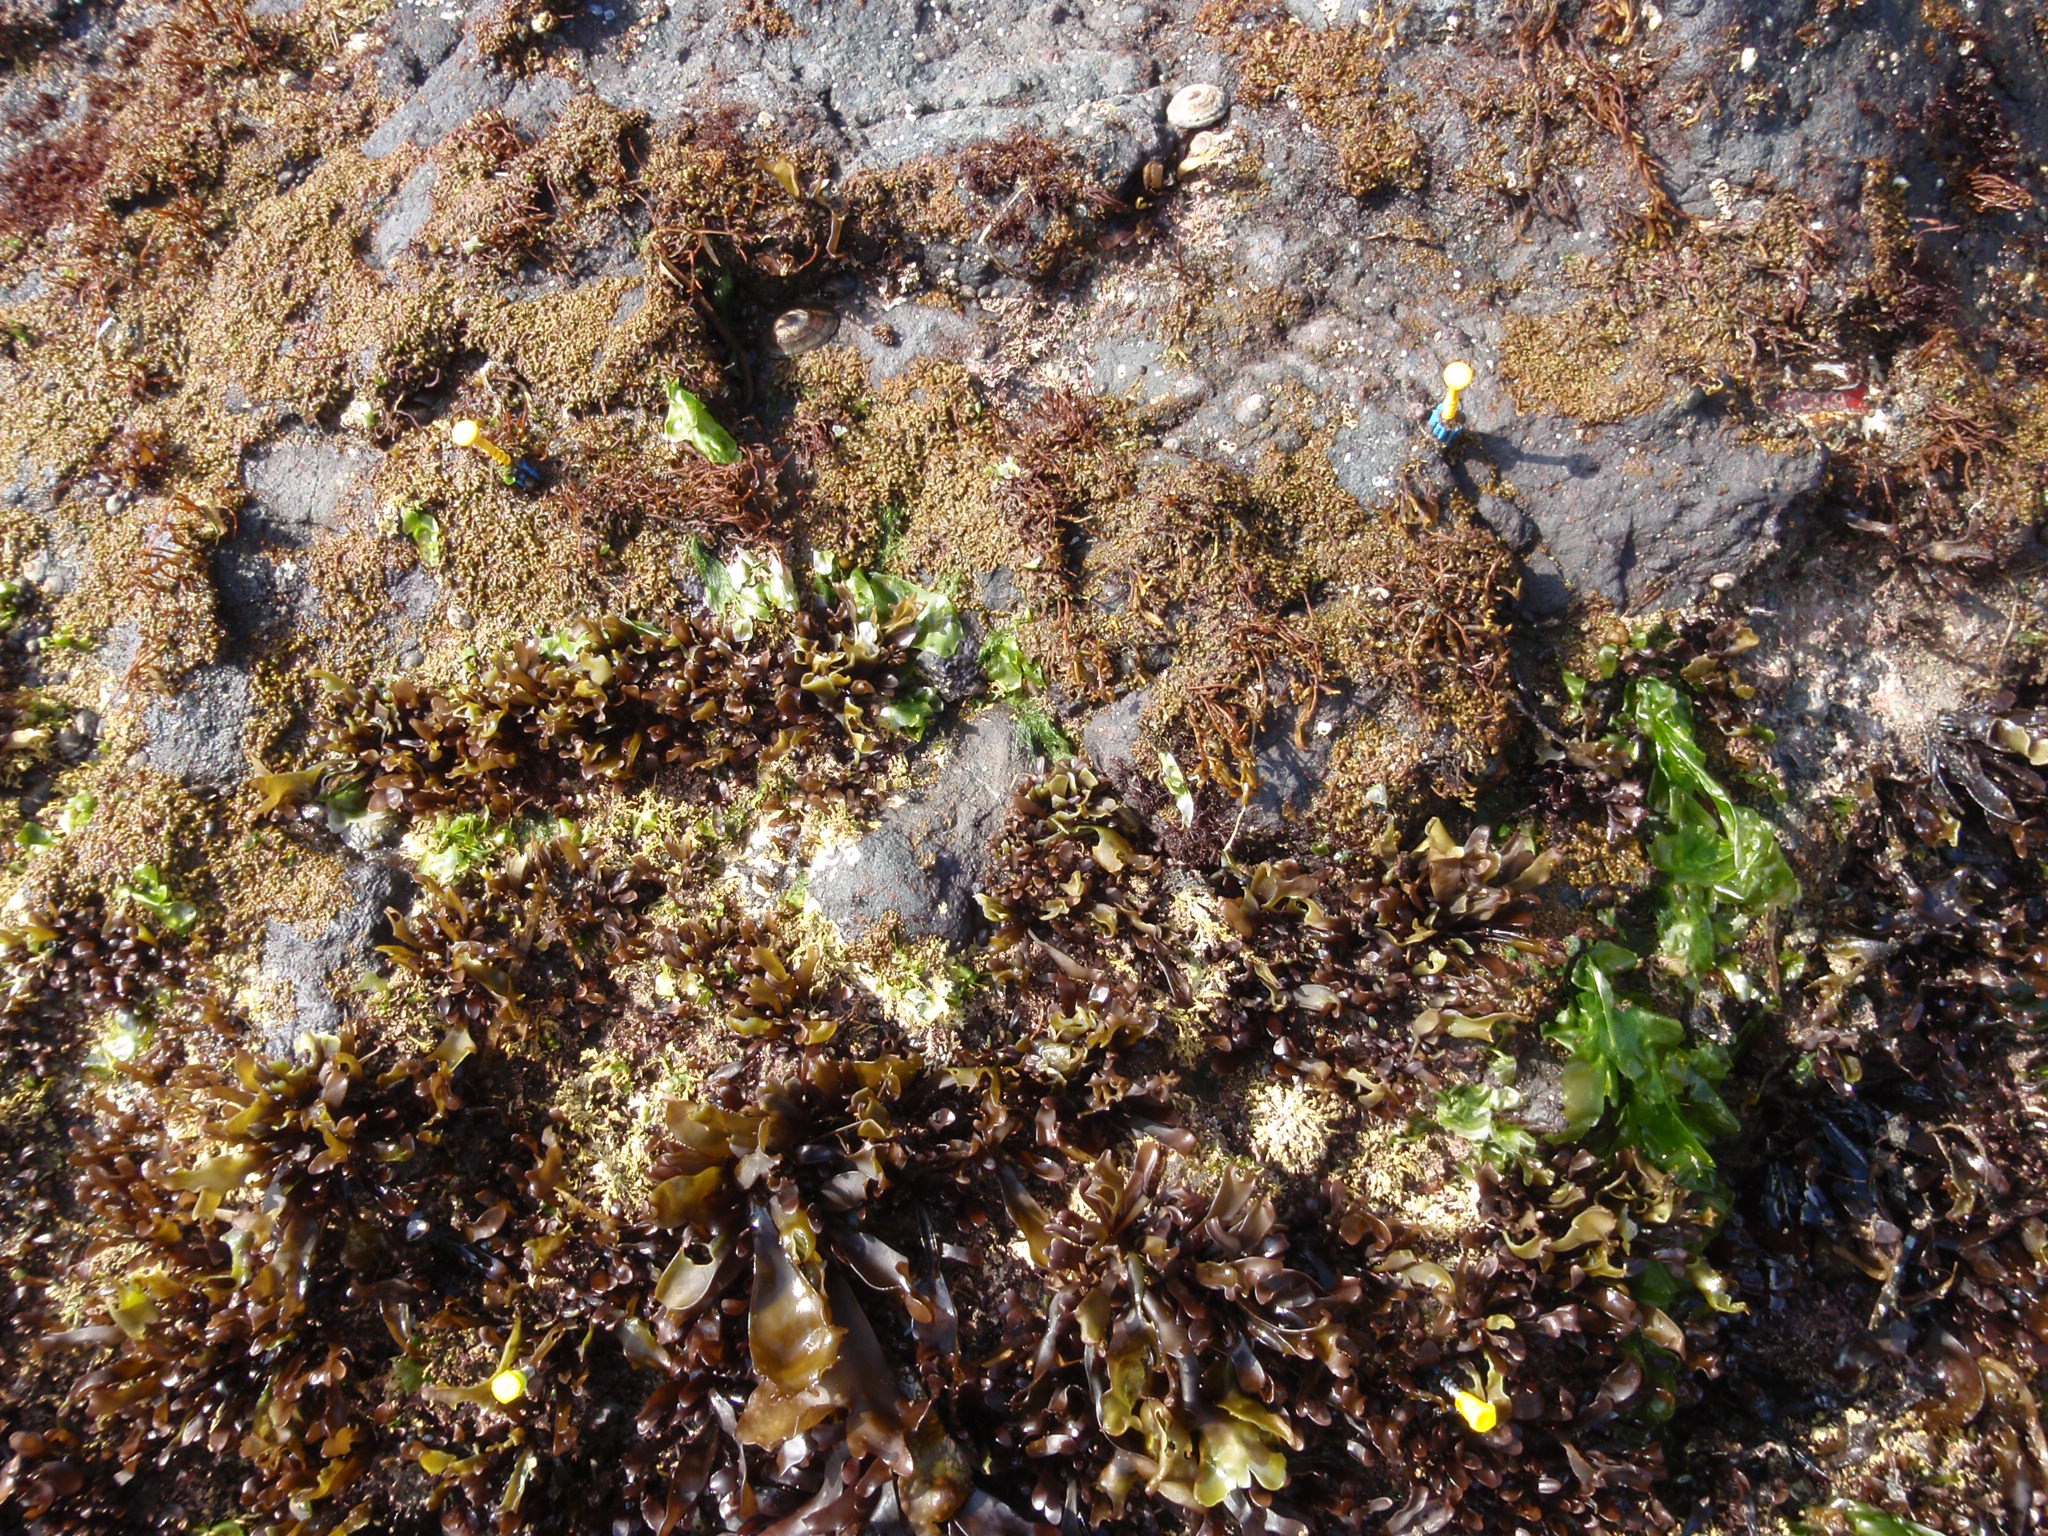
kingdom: Animalia
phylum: Arthropoda
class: Maxillopoda
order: Sessilia
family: Chthamalidae
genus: Chthamalus
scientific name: Chthamalus dalli
